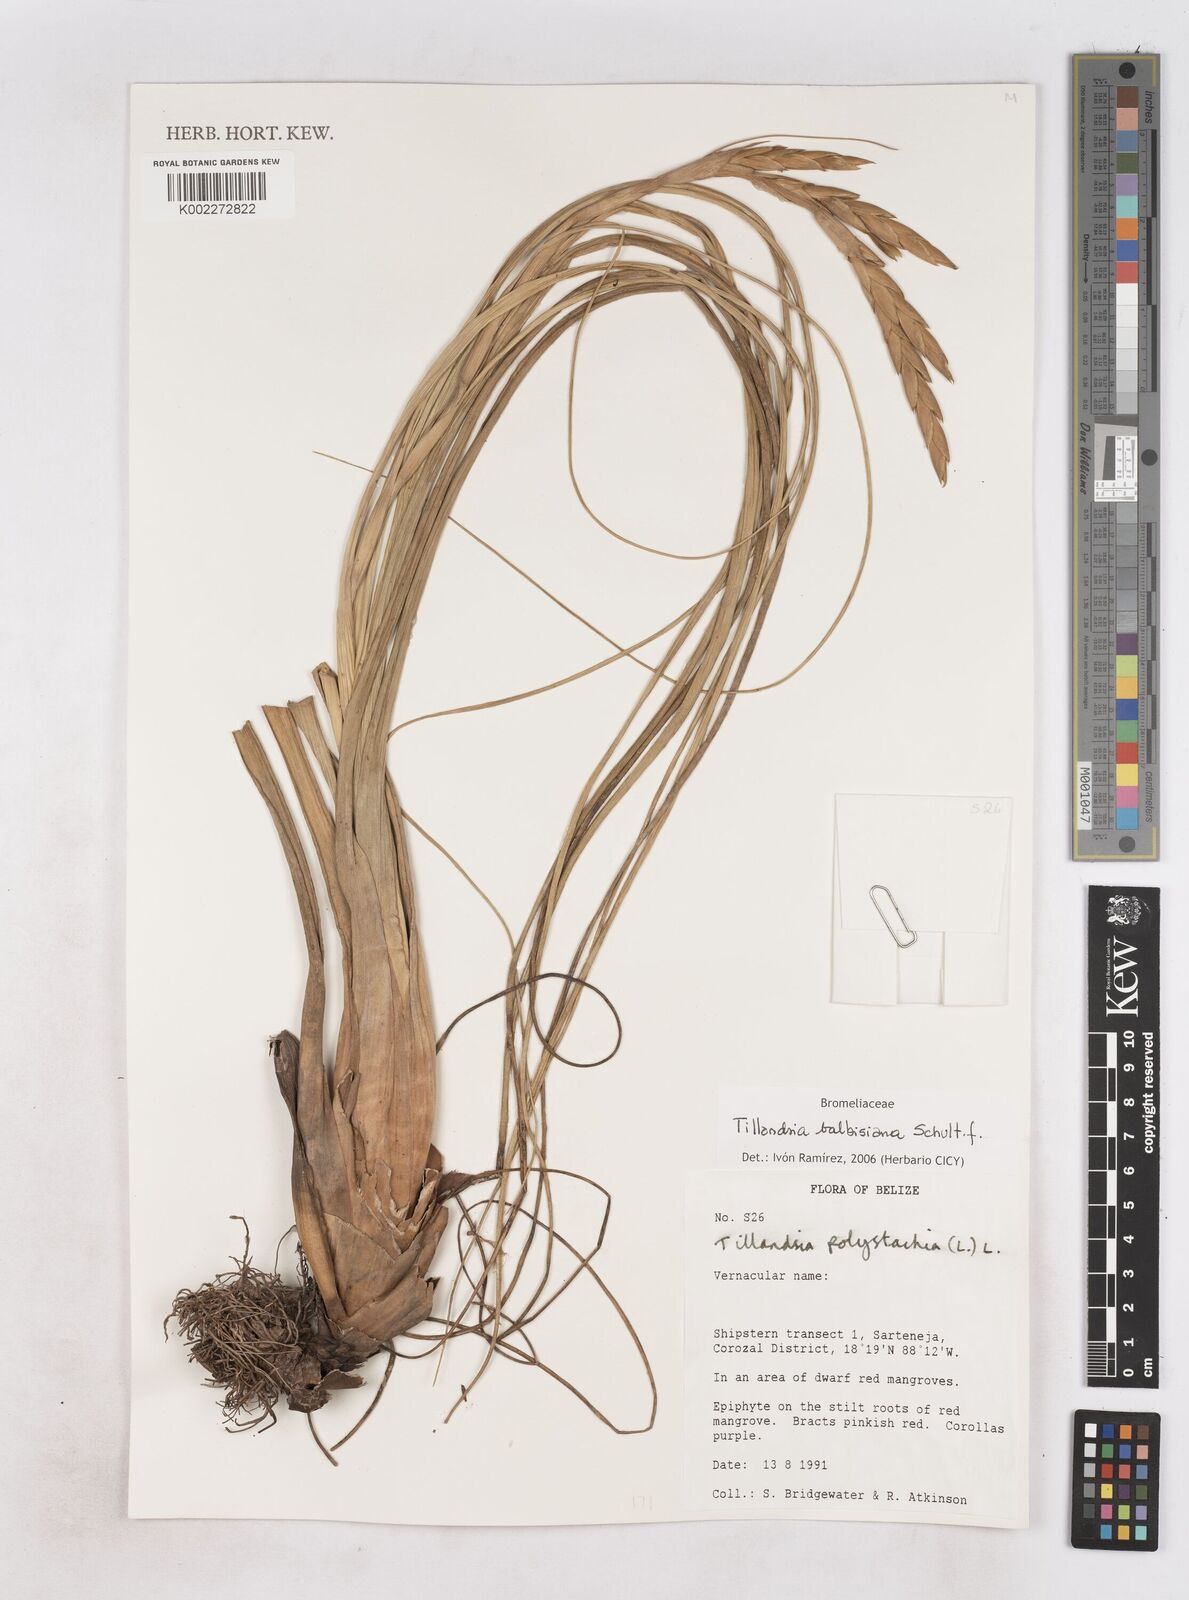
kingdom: Plantae
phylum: Tracheophyta
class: Liliopsida
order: Poales
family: Bromeliaceae
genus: Tillandsia
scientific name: Tillandsia balbisiana
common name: Northern needleleaf
